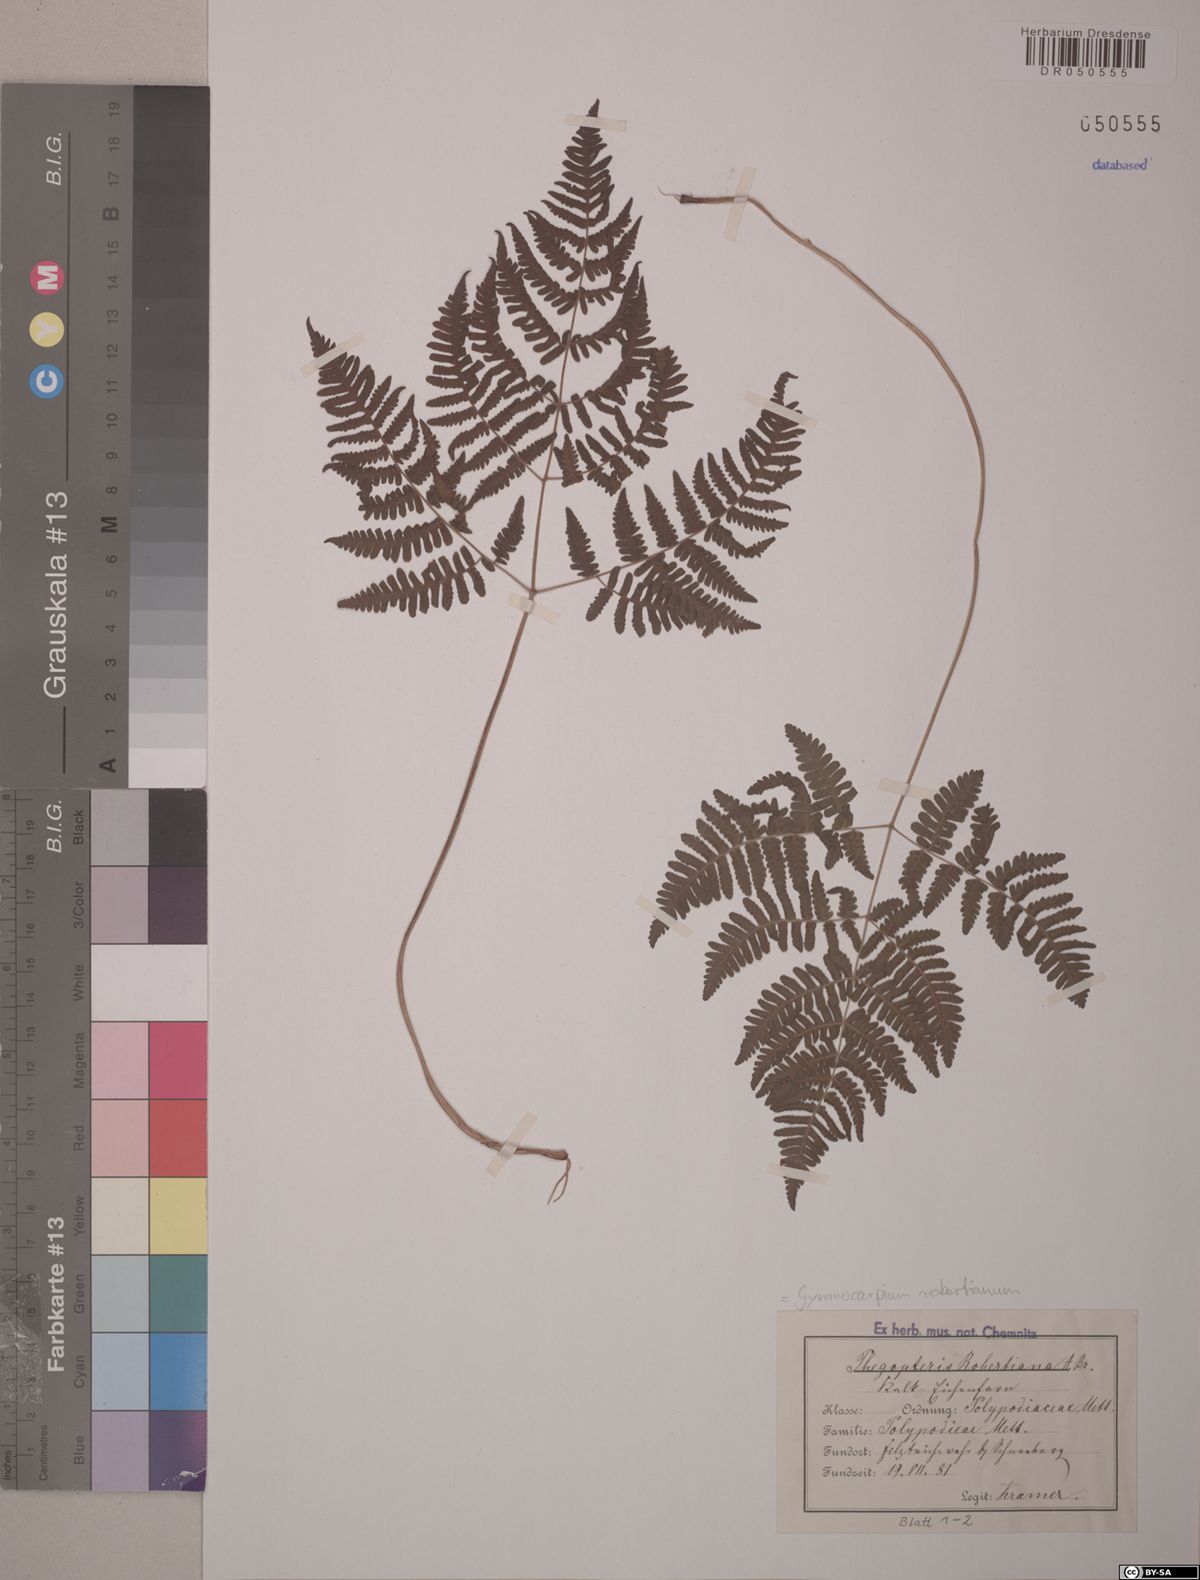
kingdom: Plantae
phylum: Tracheophyta
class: Polypodiopsida
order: Polypodiales
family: Cystopteridaceae
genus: Gymnocarpium
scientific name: Gymnocarpium robertianum
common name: Limestone fern
